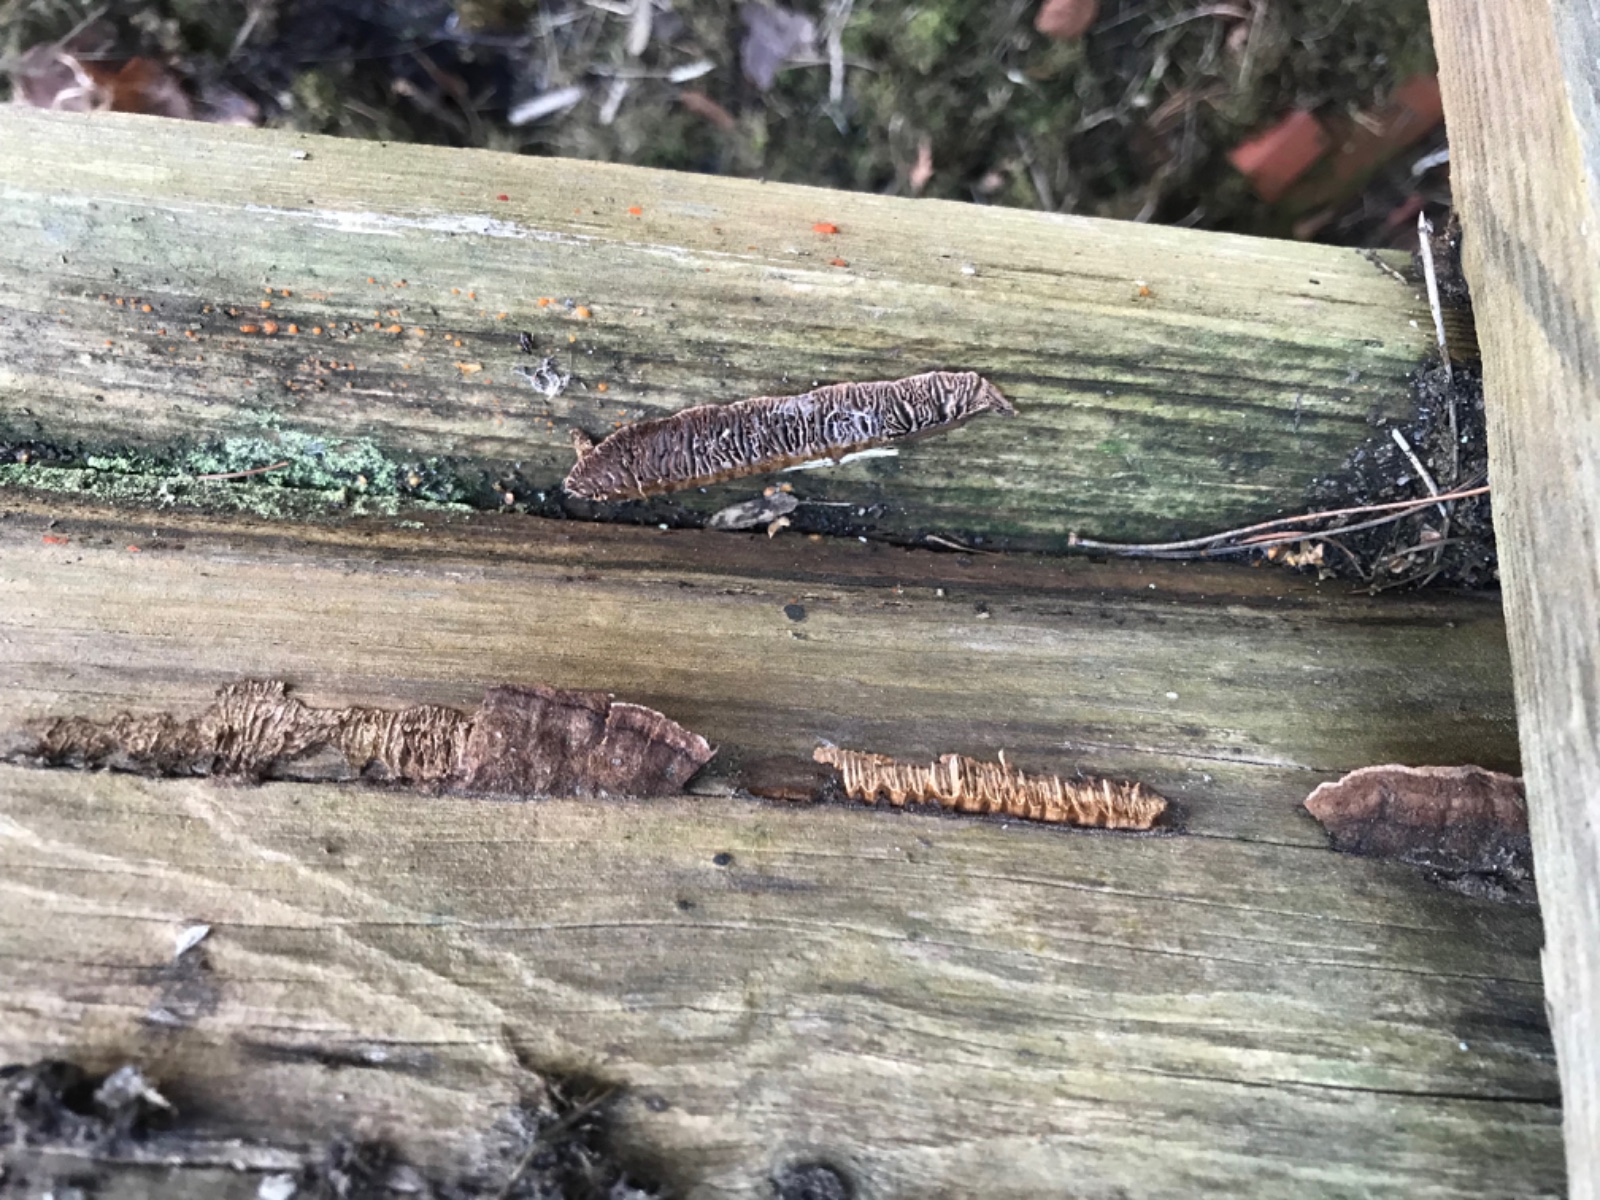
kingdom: Fungi
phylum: Basidiomycota
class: Agaricomycetes
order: Gloeophyllales
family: Gloeophyllaceae
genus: Gloeophyllum
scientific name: Gloeophyllum
